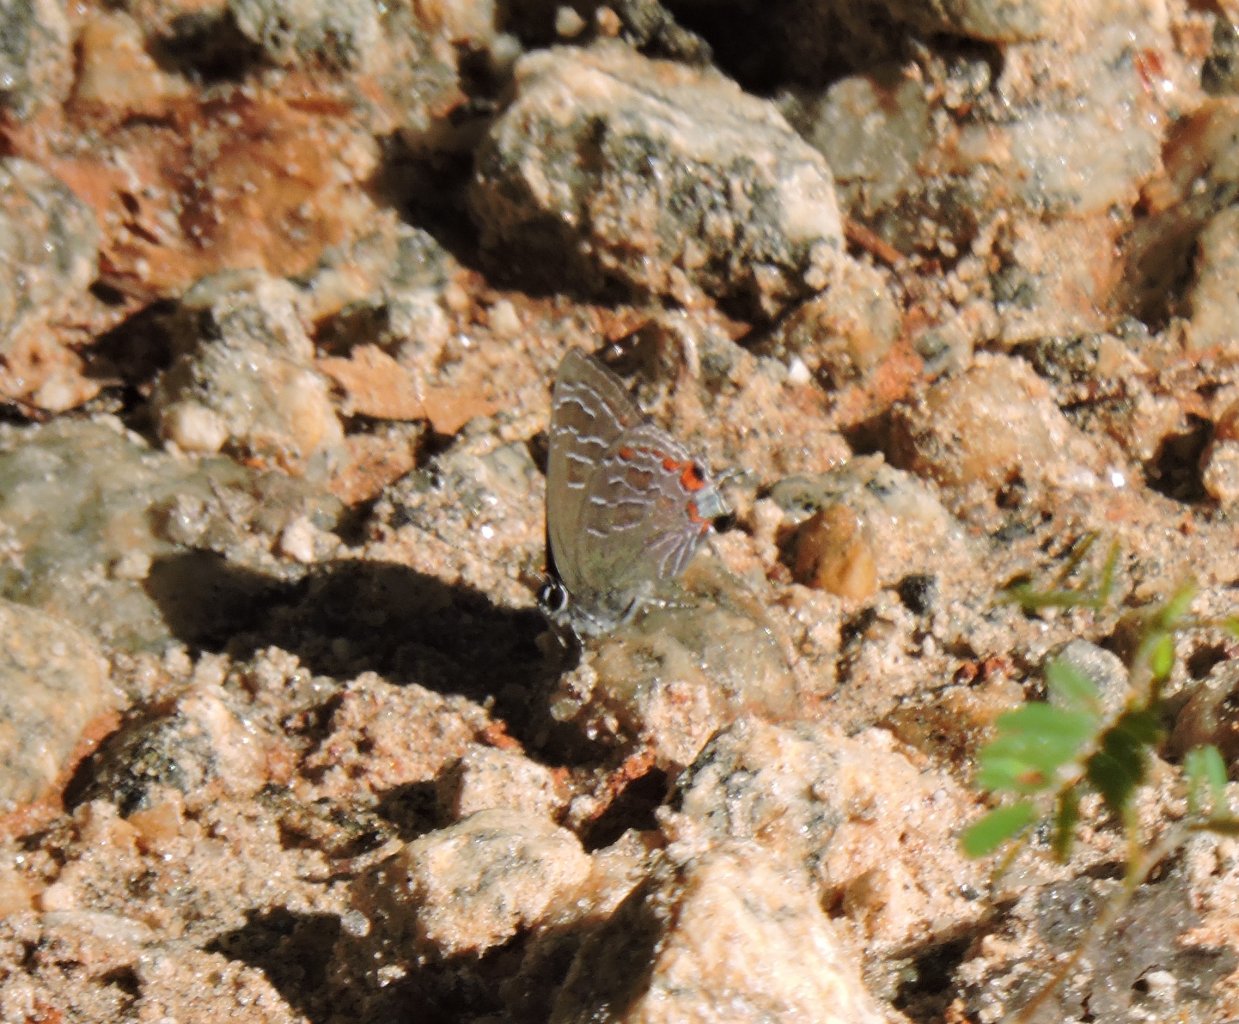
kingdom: Animalia
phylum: Arthropoda
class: Insecta
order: Lepidoptera
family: Lycaenidae
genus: Satyrium
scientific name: Satyrium liparops
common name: Striped Hairstreak
